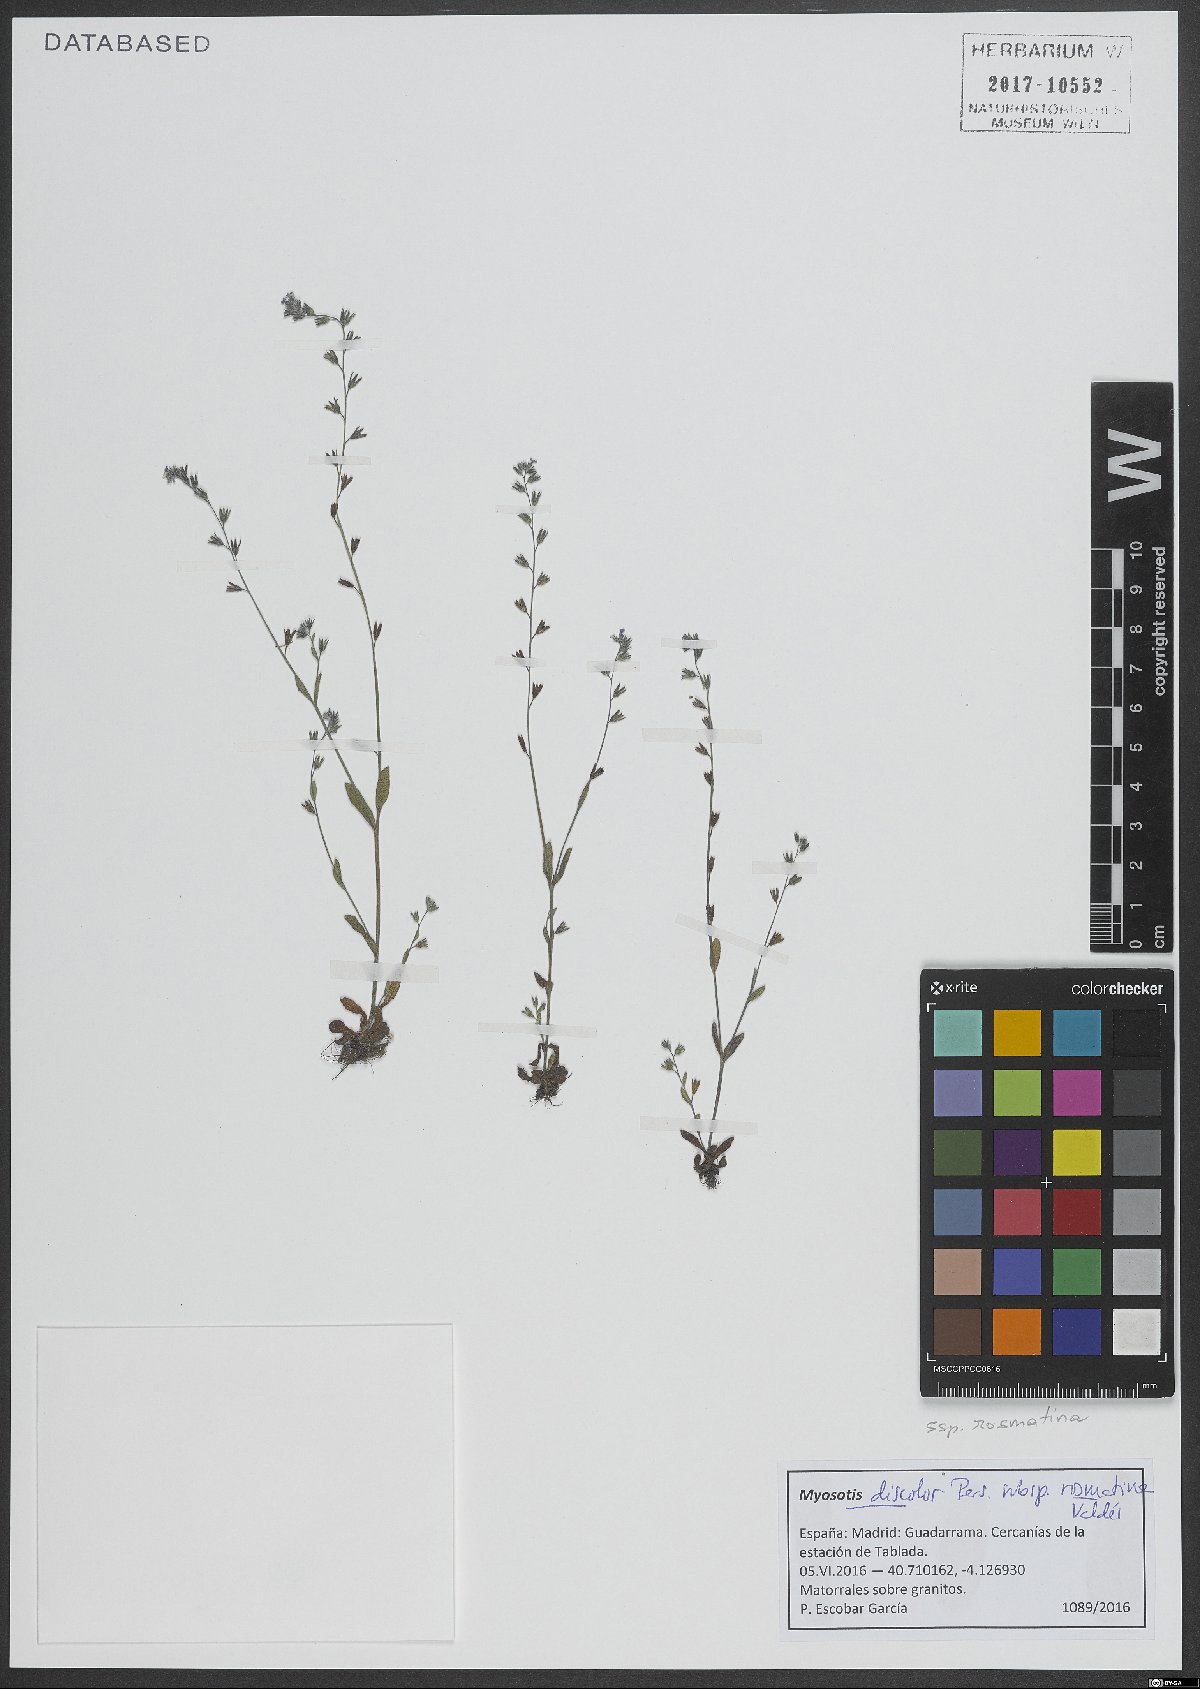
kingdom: Plantae
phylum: Tracheophyta
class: Magnoliopsida
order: Boraginales
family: Boraginaceae
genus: Myosotis
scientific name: Myosotis discolor
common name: Changing forget-me-not
